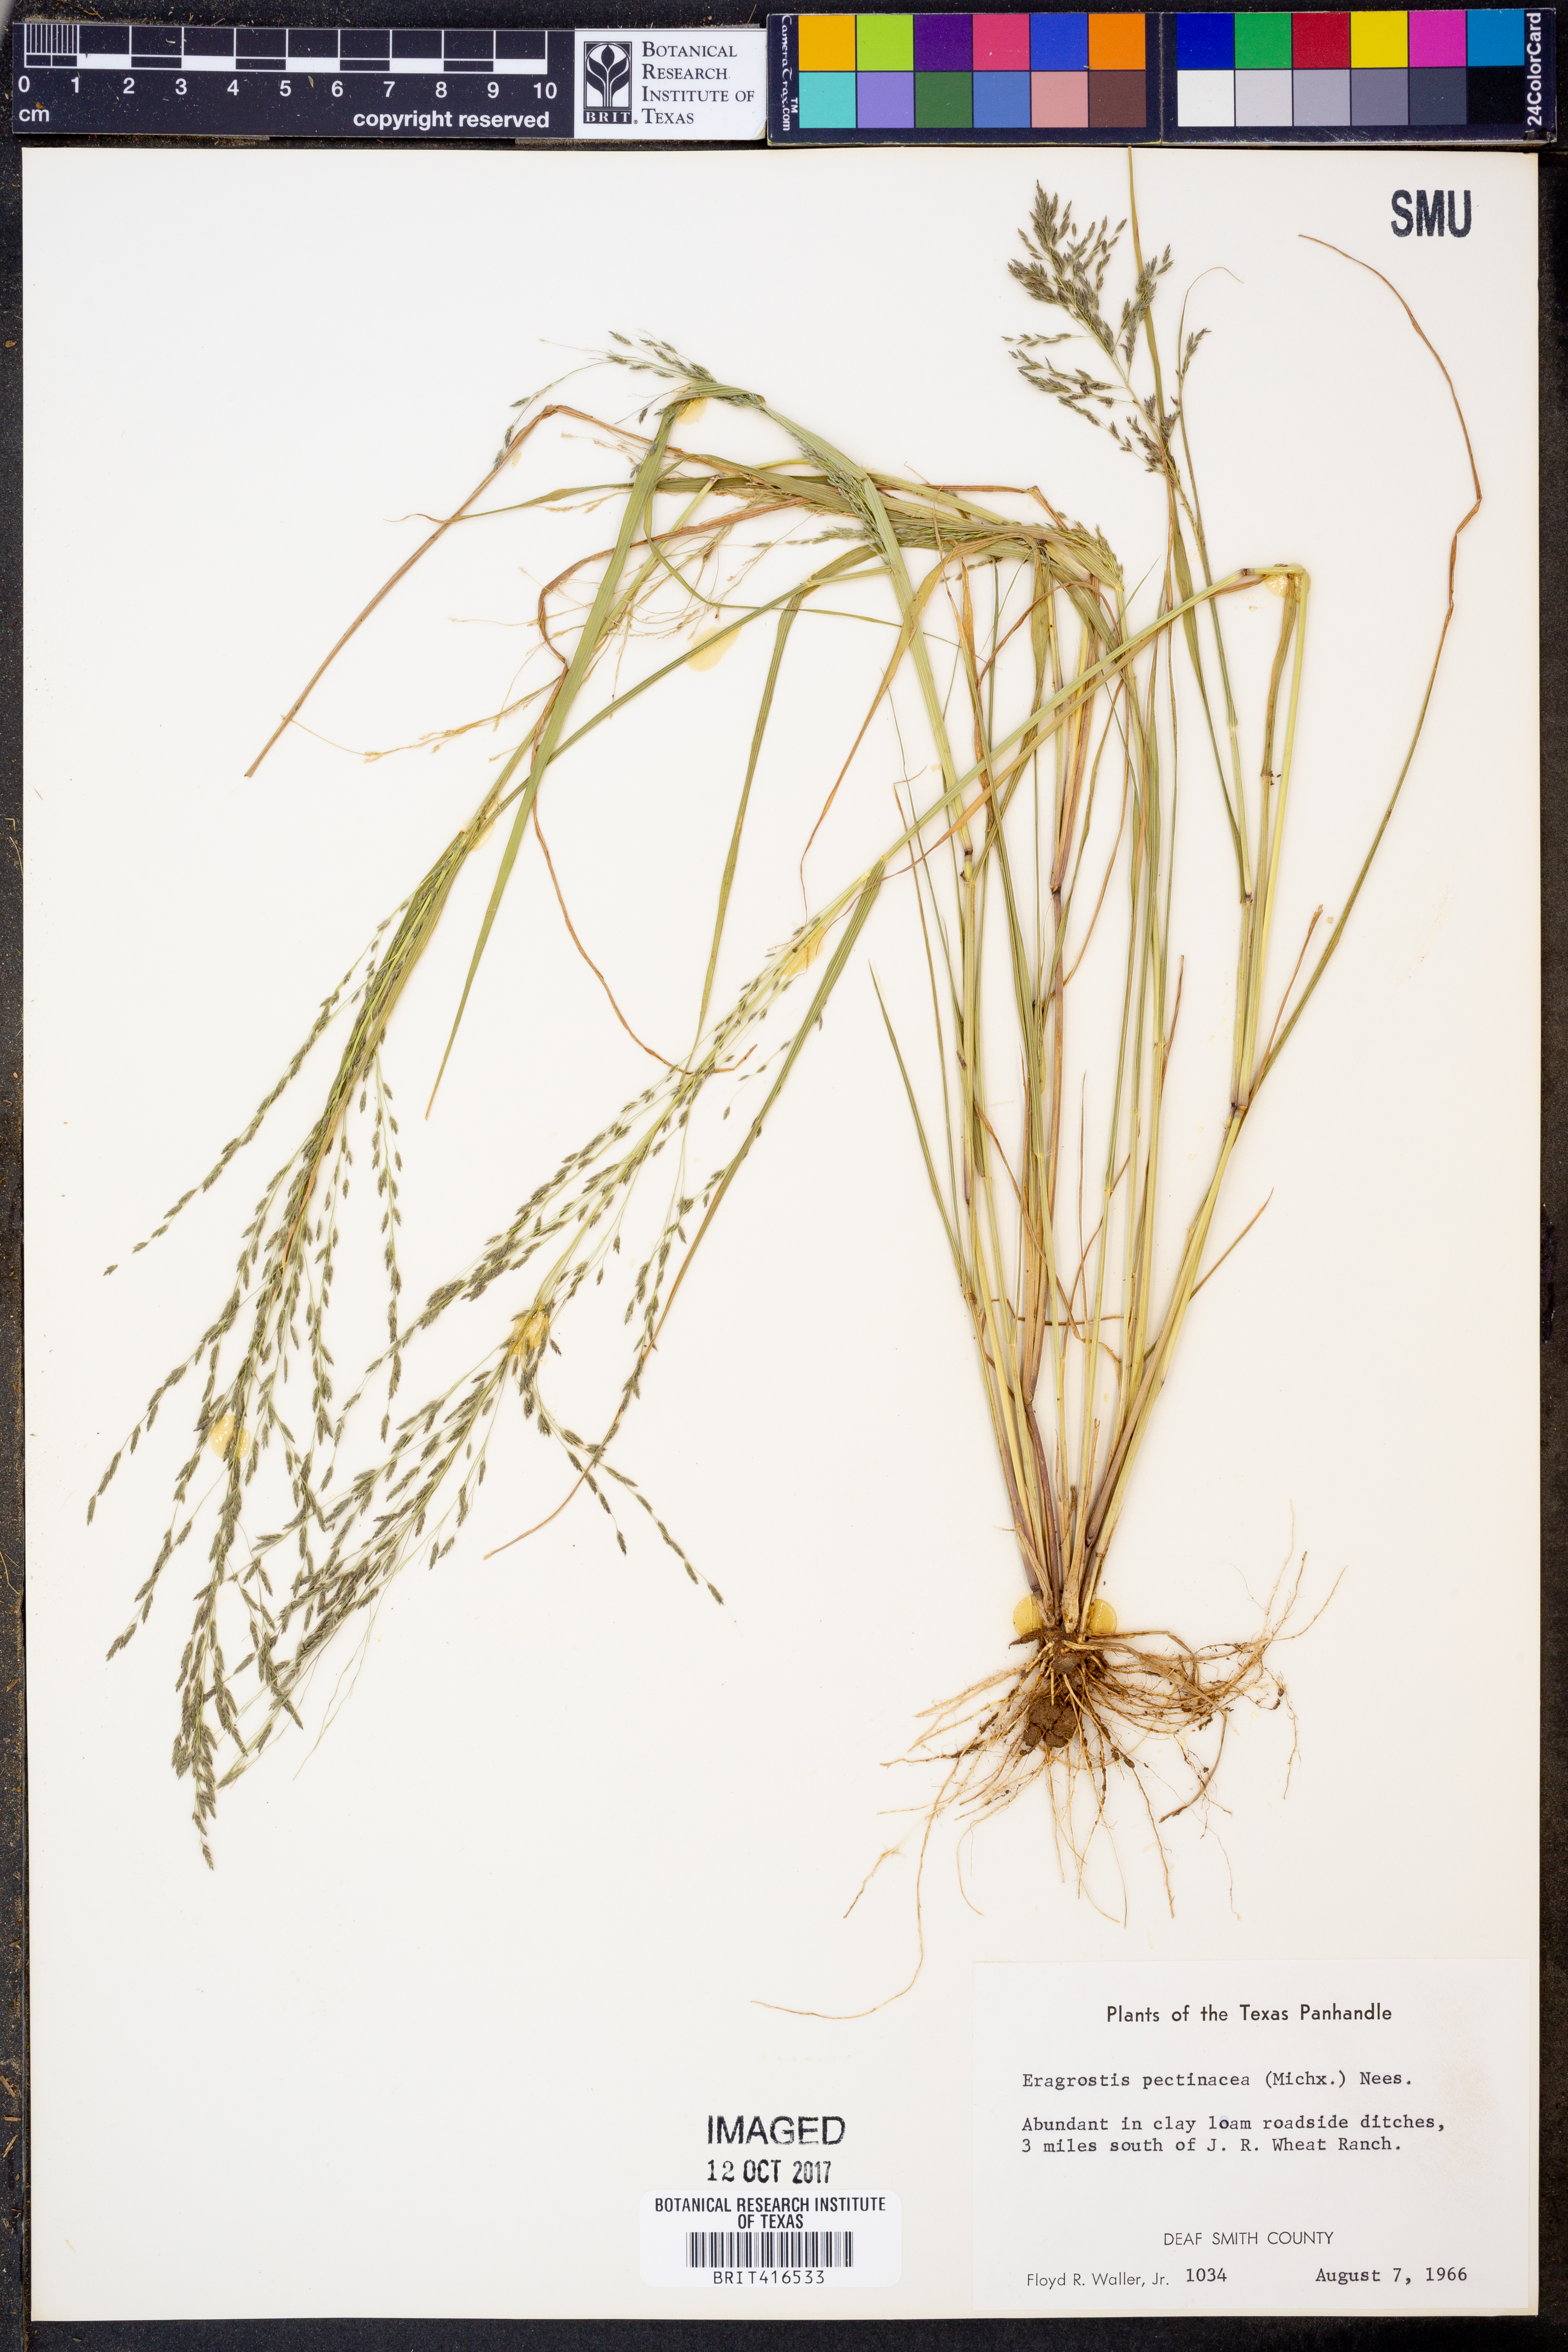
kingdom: Plantae
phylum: Tracheophyta
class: Liliopsida
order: Poales
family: Poaceae
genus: Eragrostis
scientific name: Eragrostis pectinacea
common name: Tufted lovegrass
